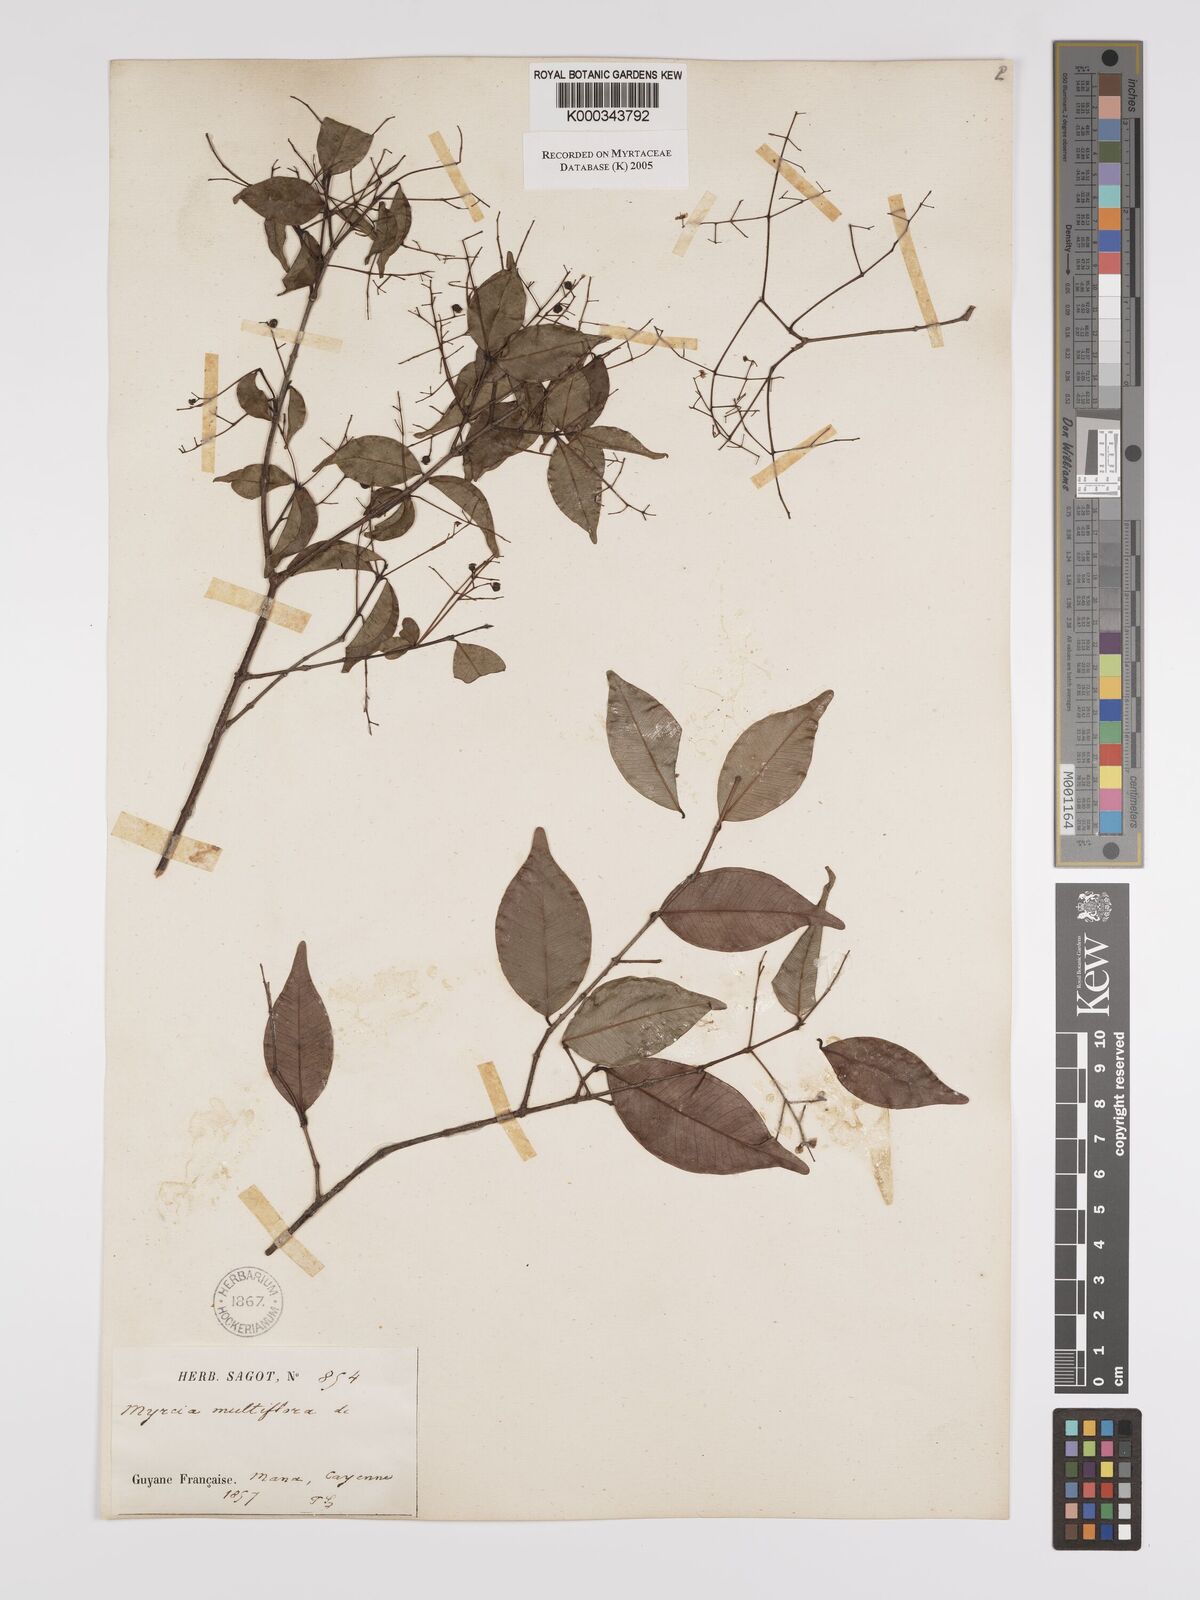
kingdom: Plantae
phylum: Tracheophyta
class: Magnoliopsida
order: Myrtales
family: Myrtaceae
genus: Myrcia
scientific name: Myrcia multiflora
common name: Pedra hume
